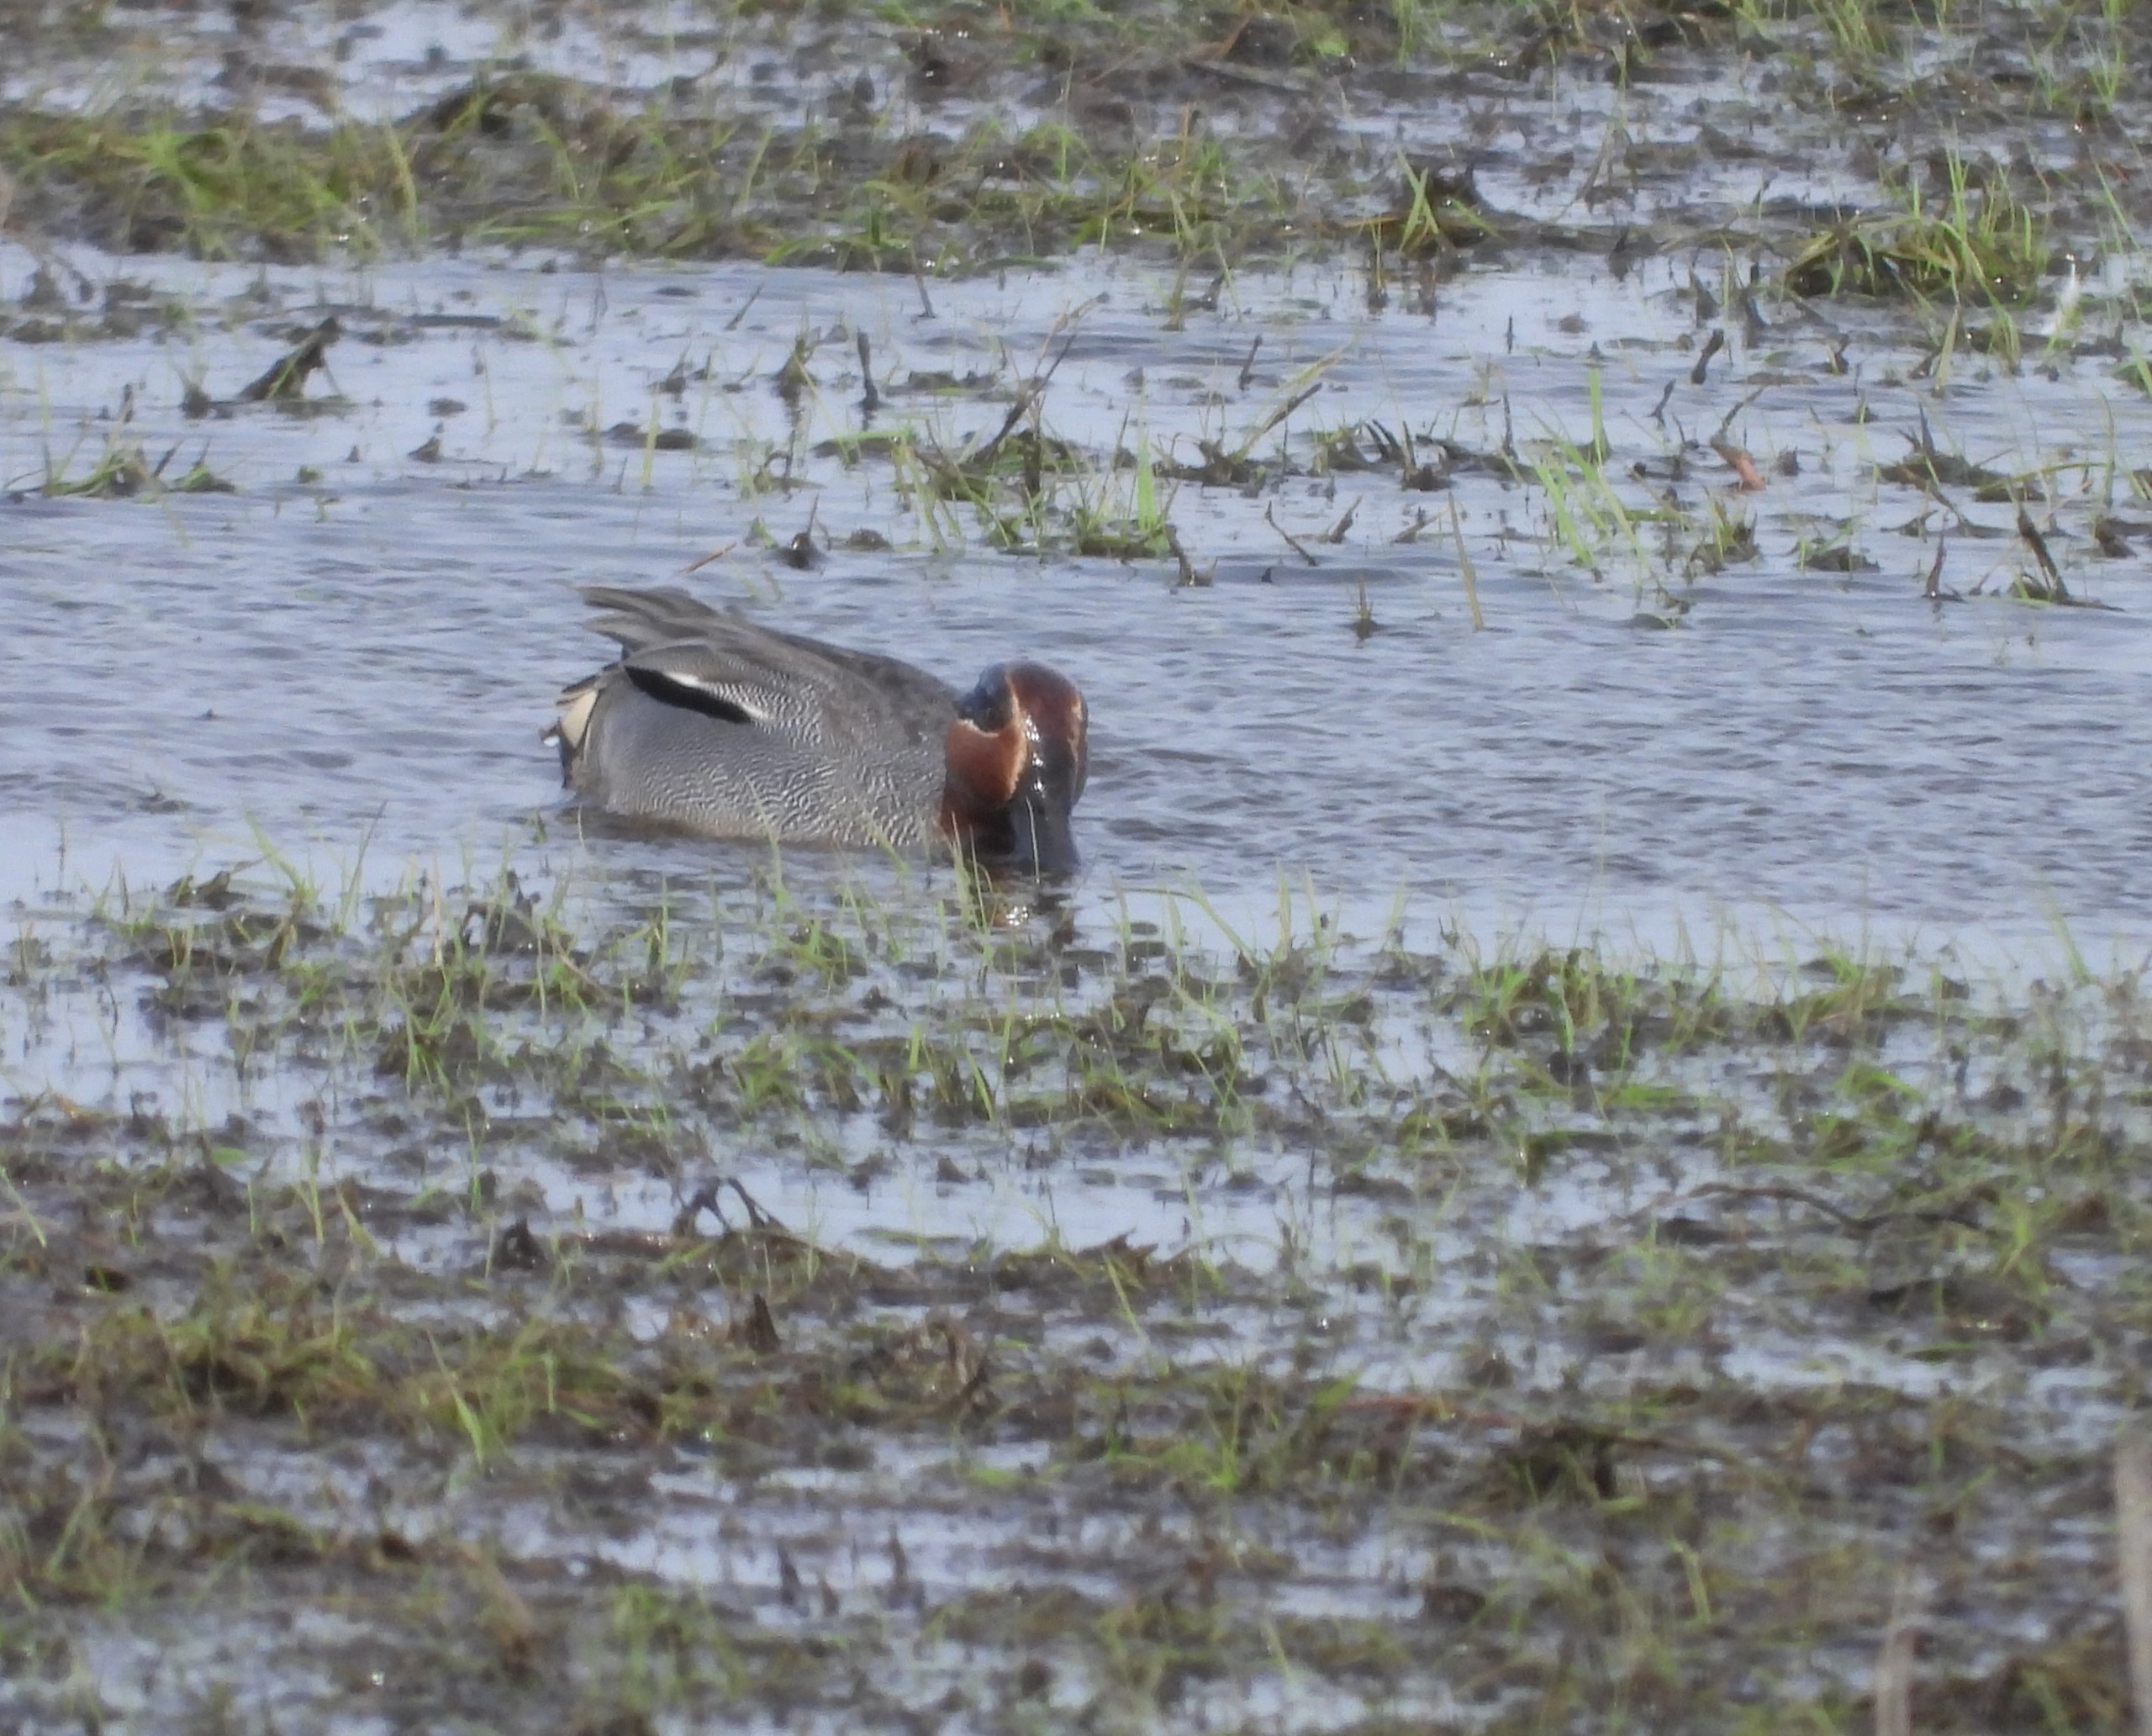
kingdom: Animalia
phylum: Chordata
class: Aves
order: Anseriformes
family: Anatidae
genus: Anas
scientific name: Anas crecca
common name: Krikand
